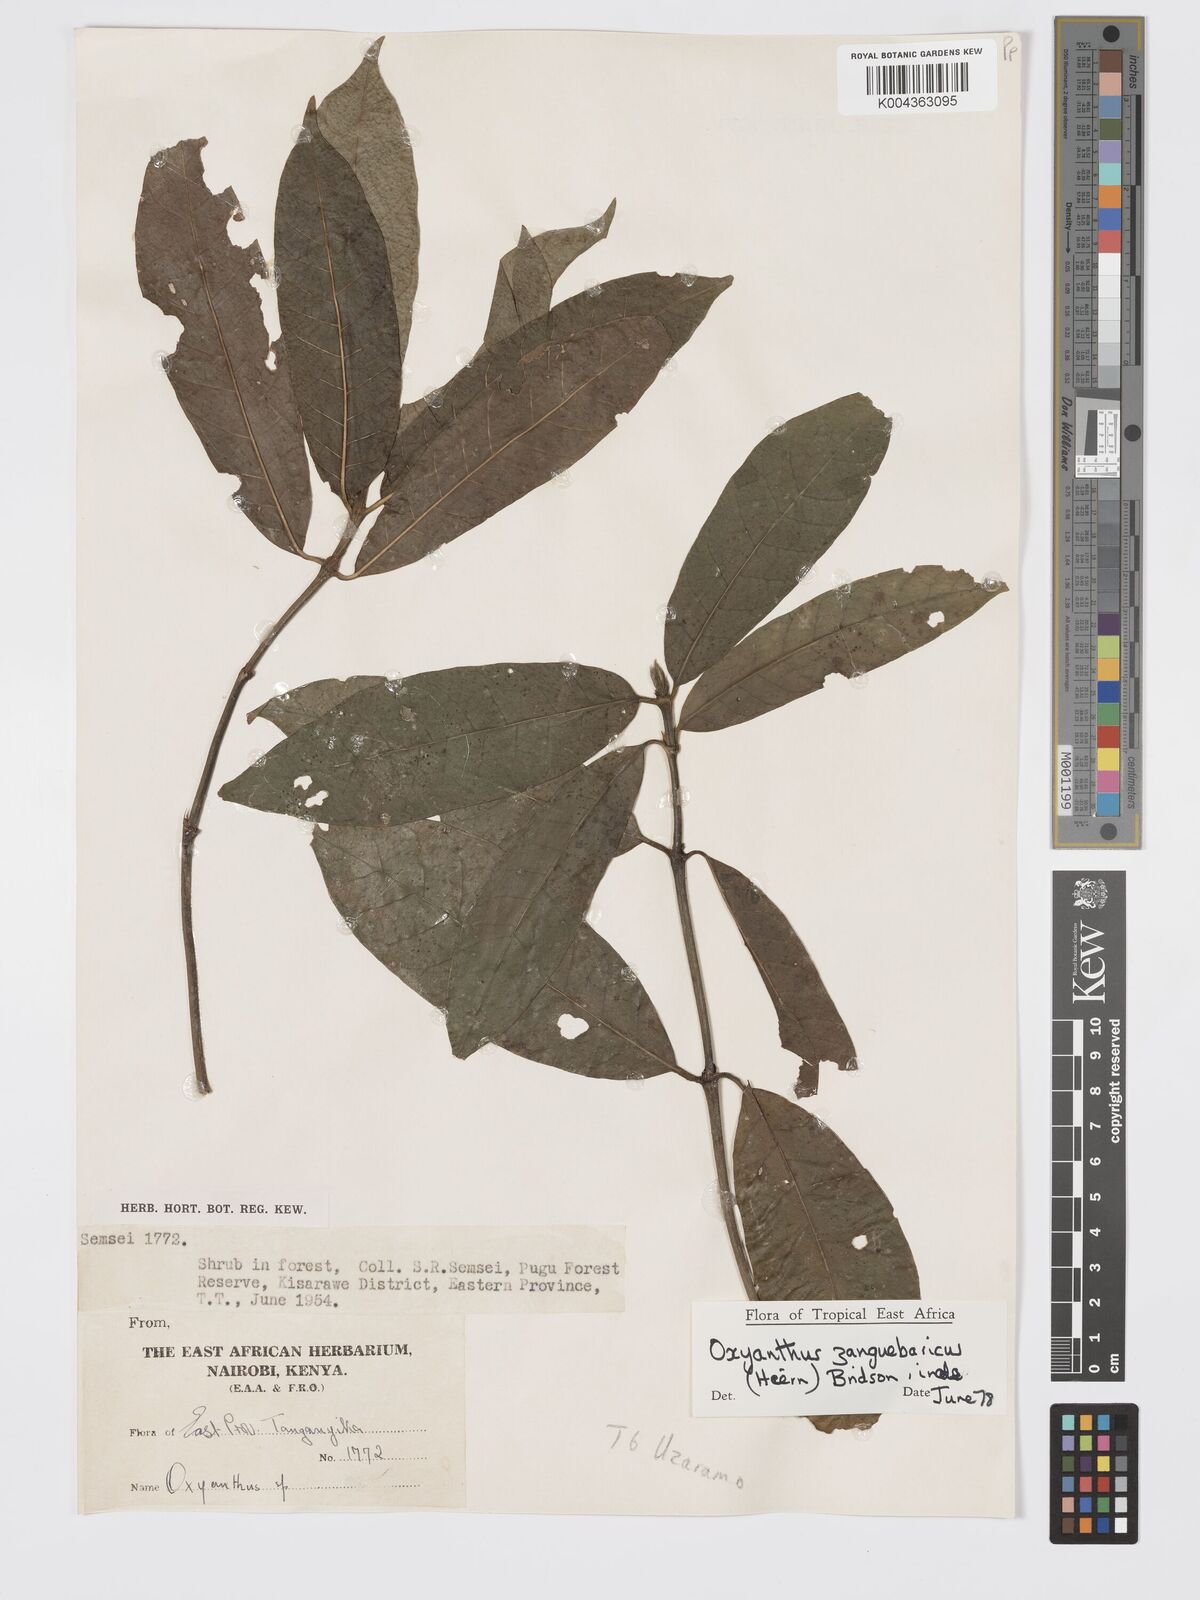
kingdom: Plantae
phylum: Tracheophyta
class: Magnoliopsida
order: Gentianales
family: Rubiaceae
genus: Oxyanthus
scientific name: Oxyanthus zanguebaricus
